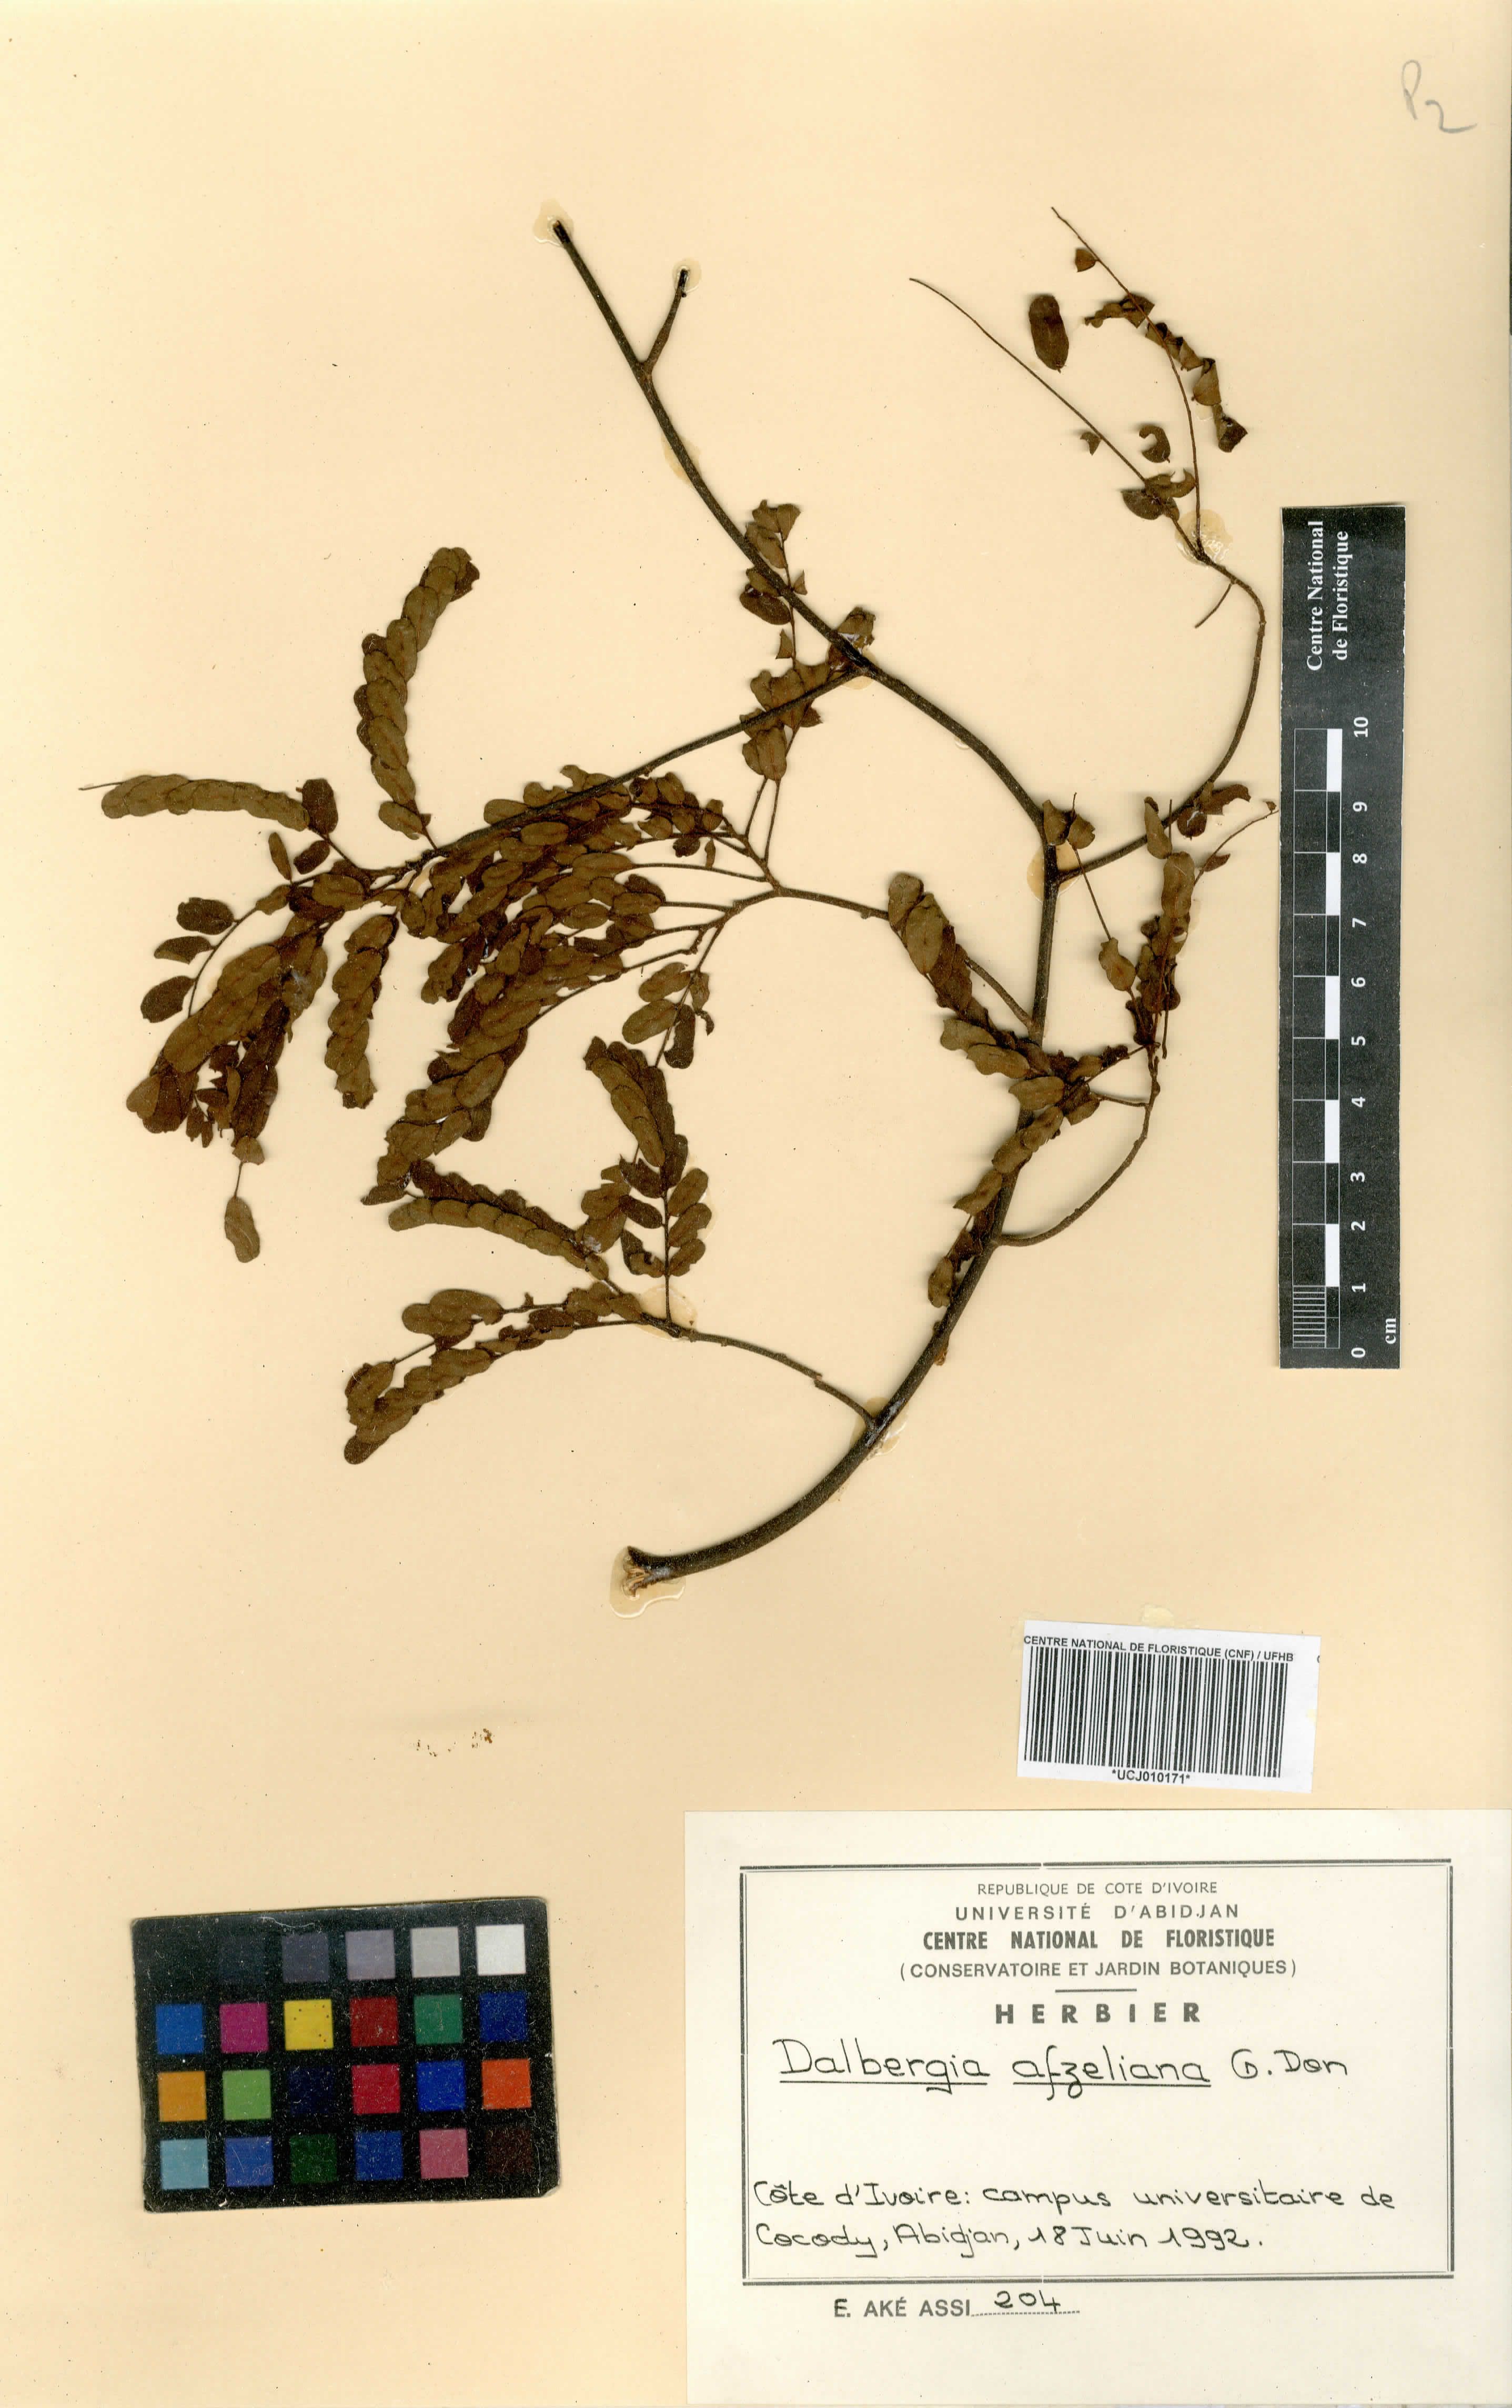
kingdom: Plantae
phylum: Tracheophyta
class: Magnoliopsida
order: Fabales
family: Fabaceae
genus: Dalbergia
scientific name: Dalbergia afzeliana
